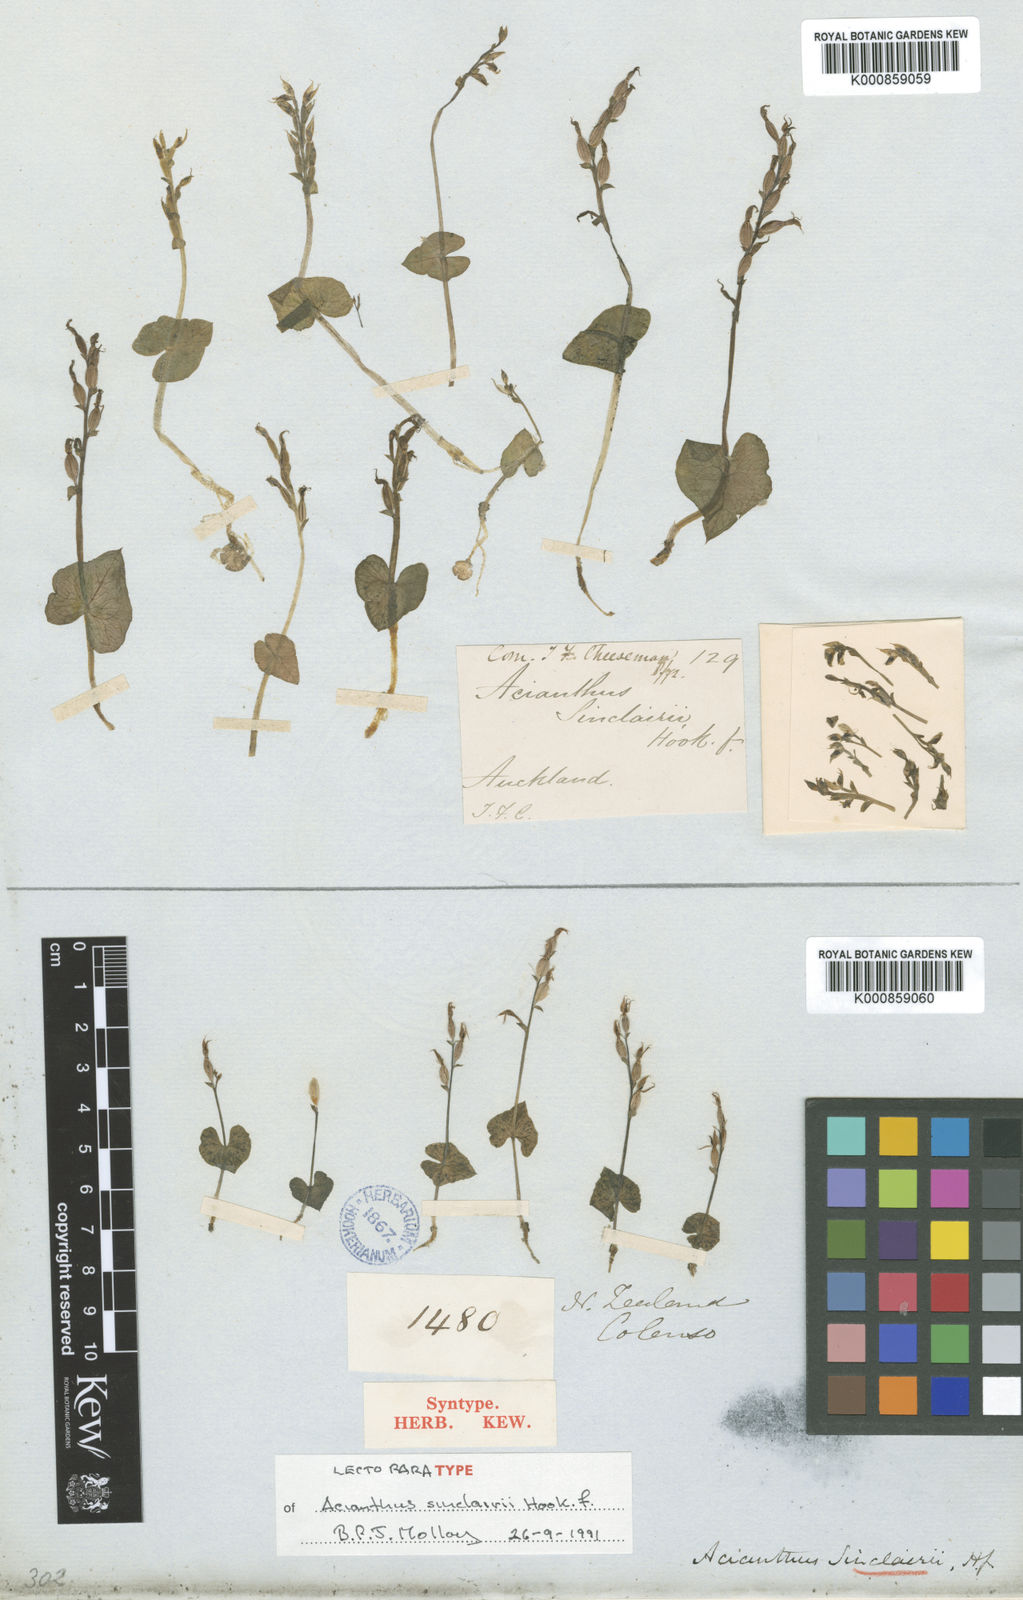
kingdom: Plantae
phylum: Tracheophyta
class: Liliopsida
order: Asparagales
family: Orchidaceae
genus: Acianthus
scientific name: Acianthus sinclairii
